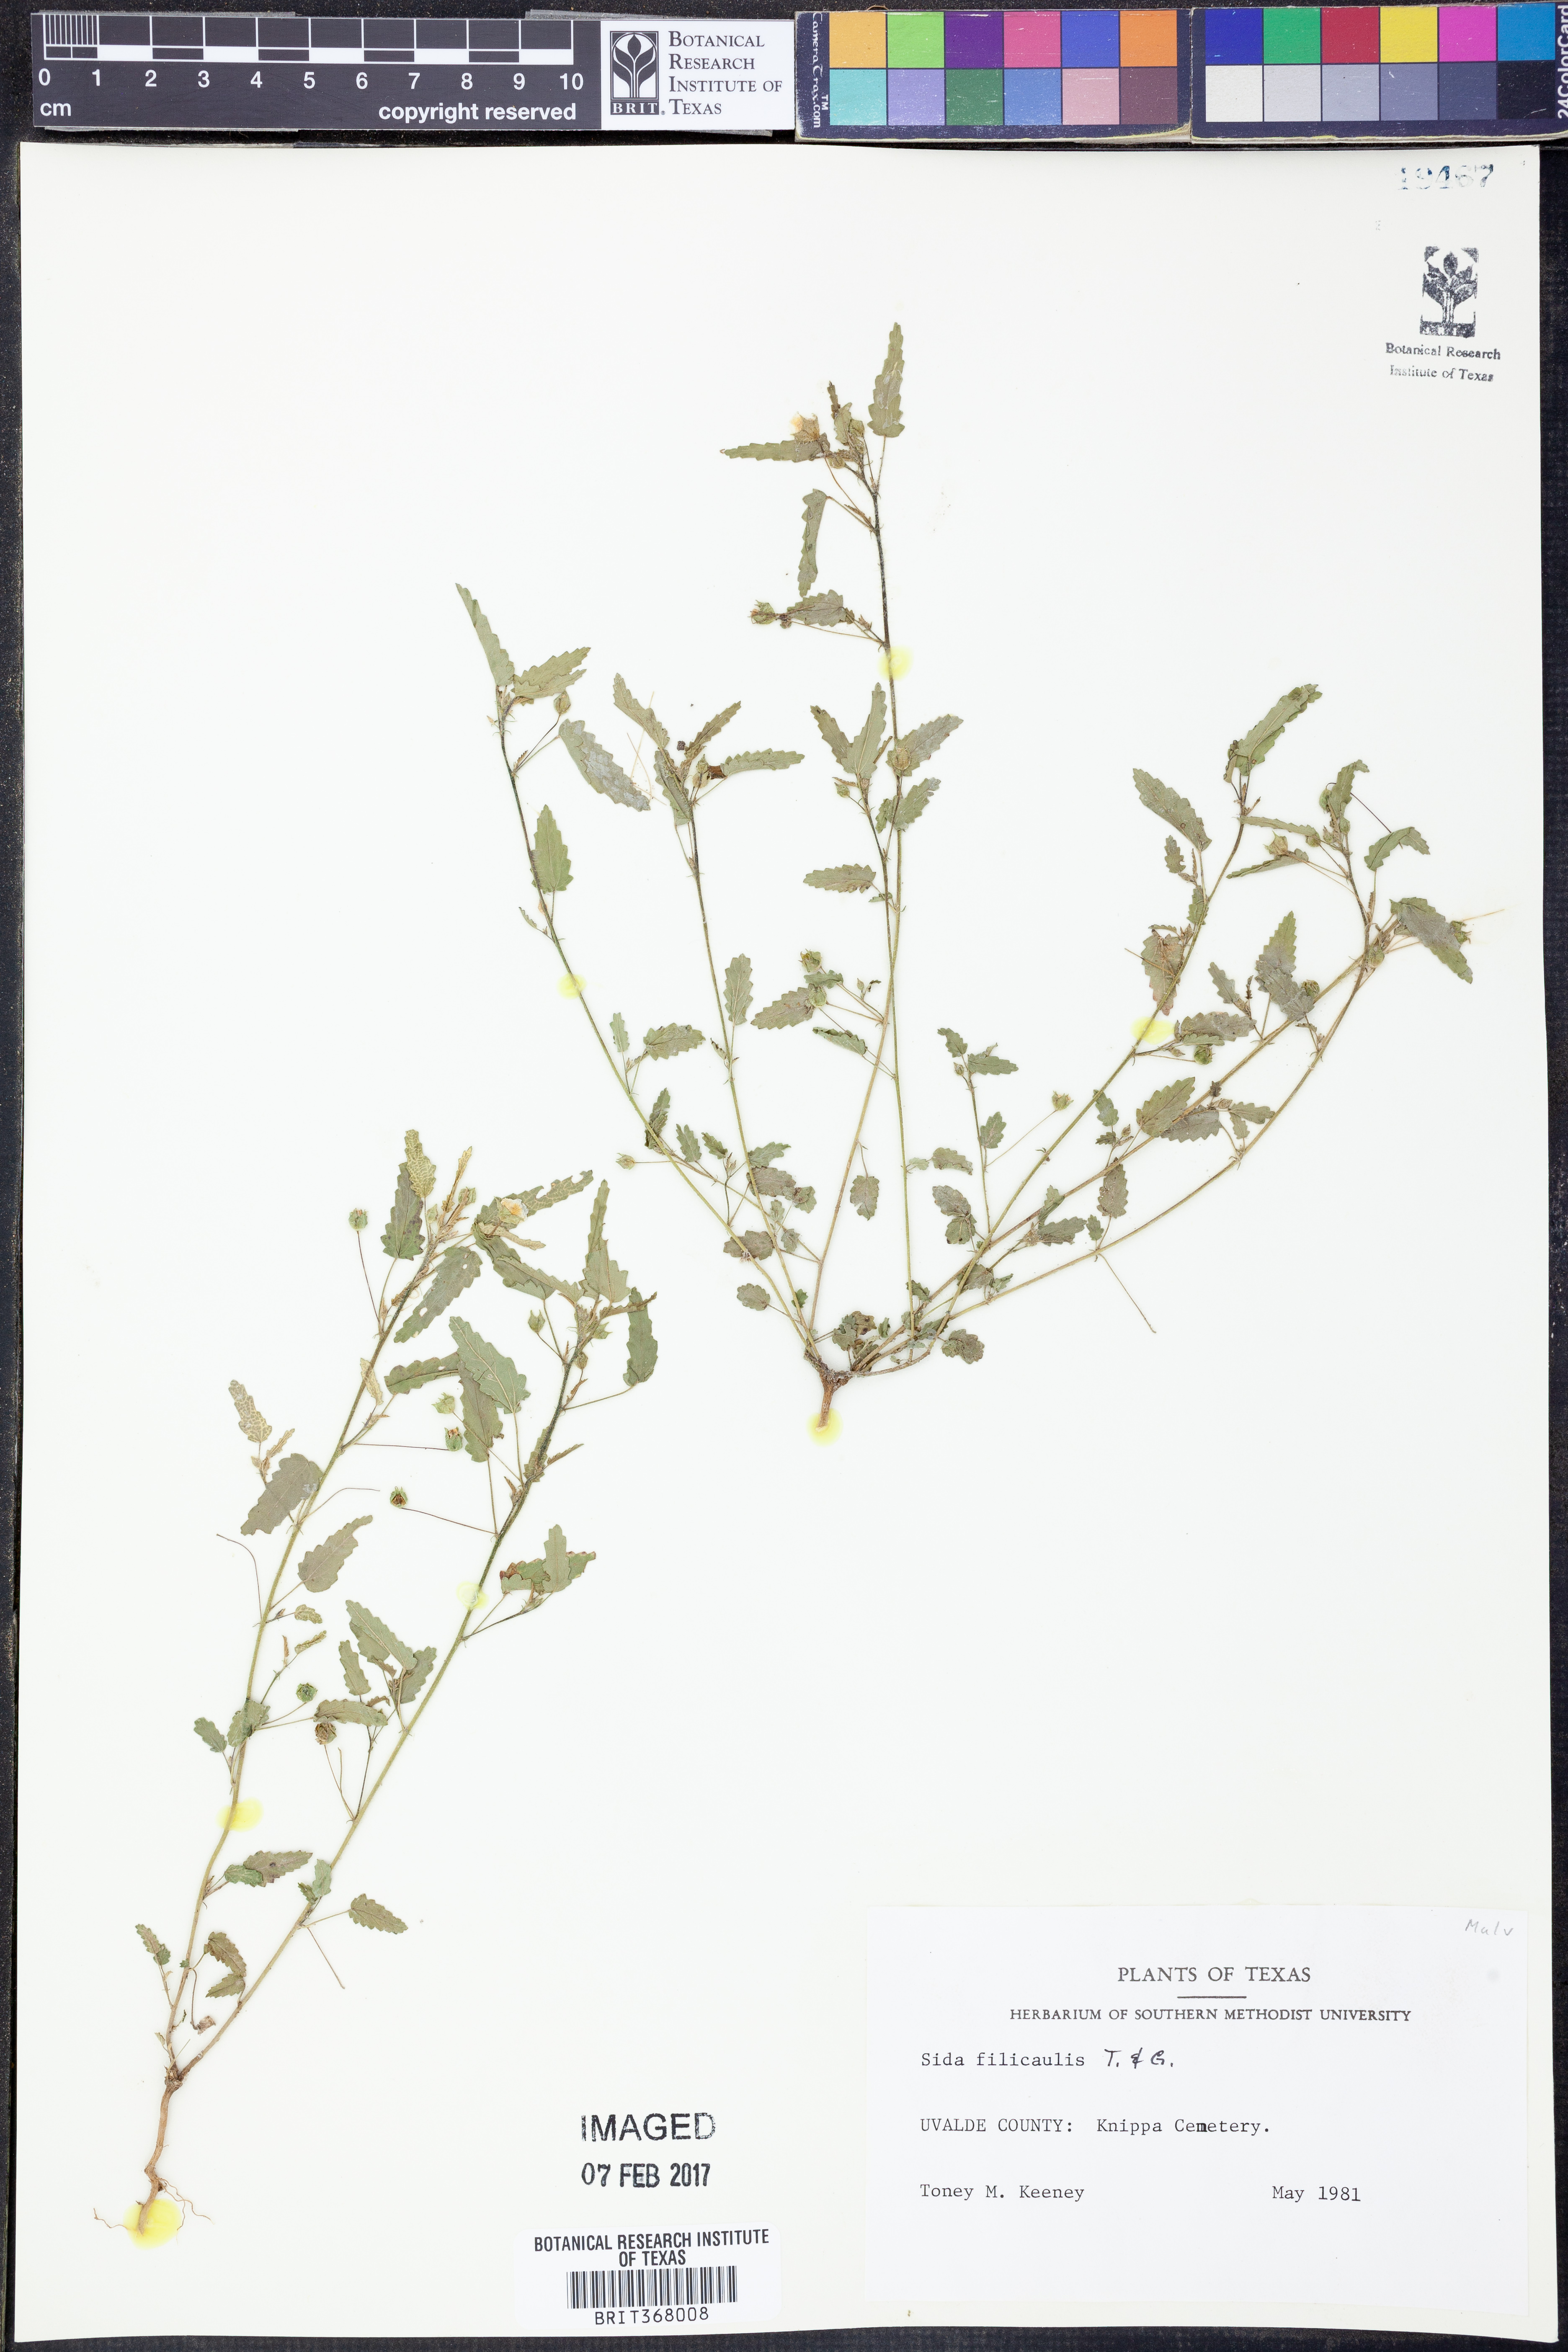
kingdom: Plantae
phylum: Tracheophyta
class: Magnoliopsida
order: Malvales
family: Malvaceae
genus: Sida
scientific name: Sida abutilifolia
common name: Spreading fanpetals
